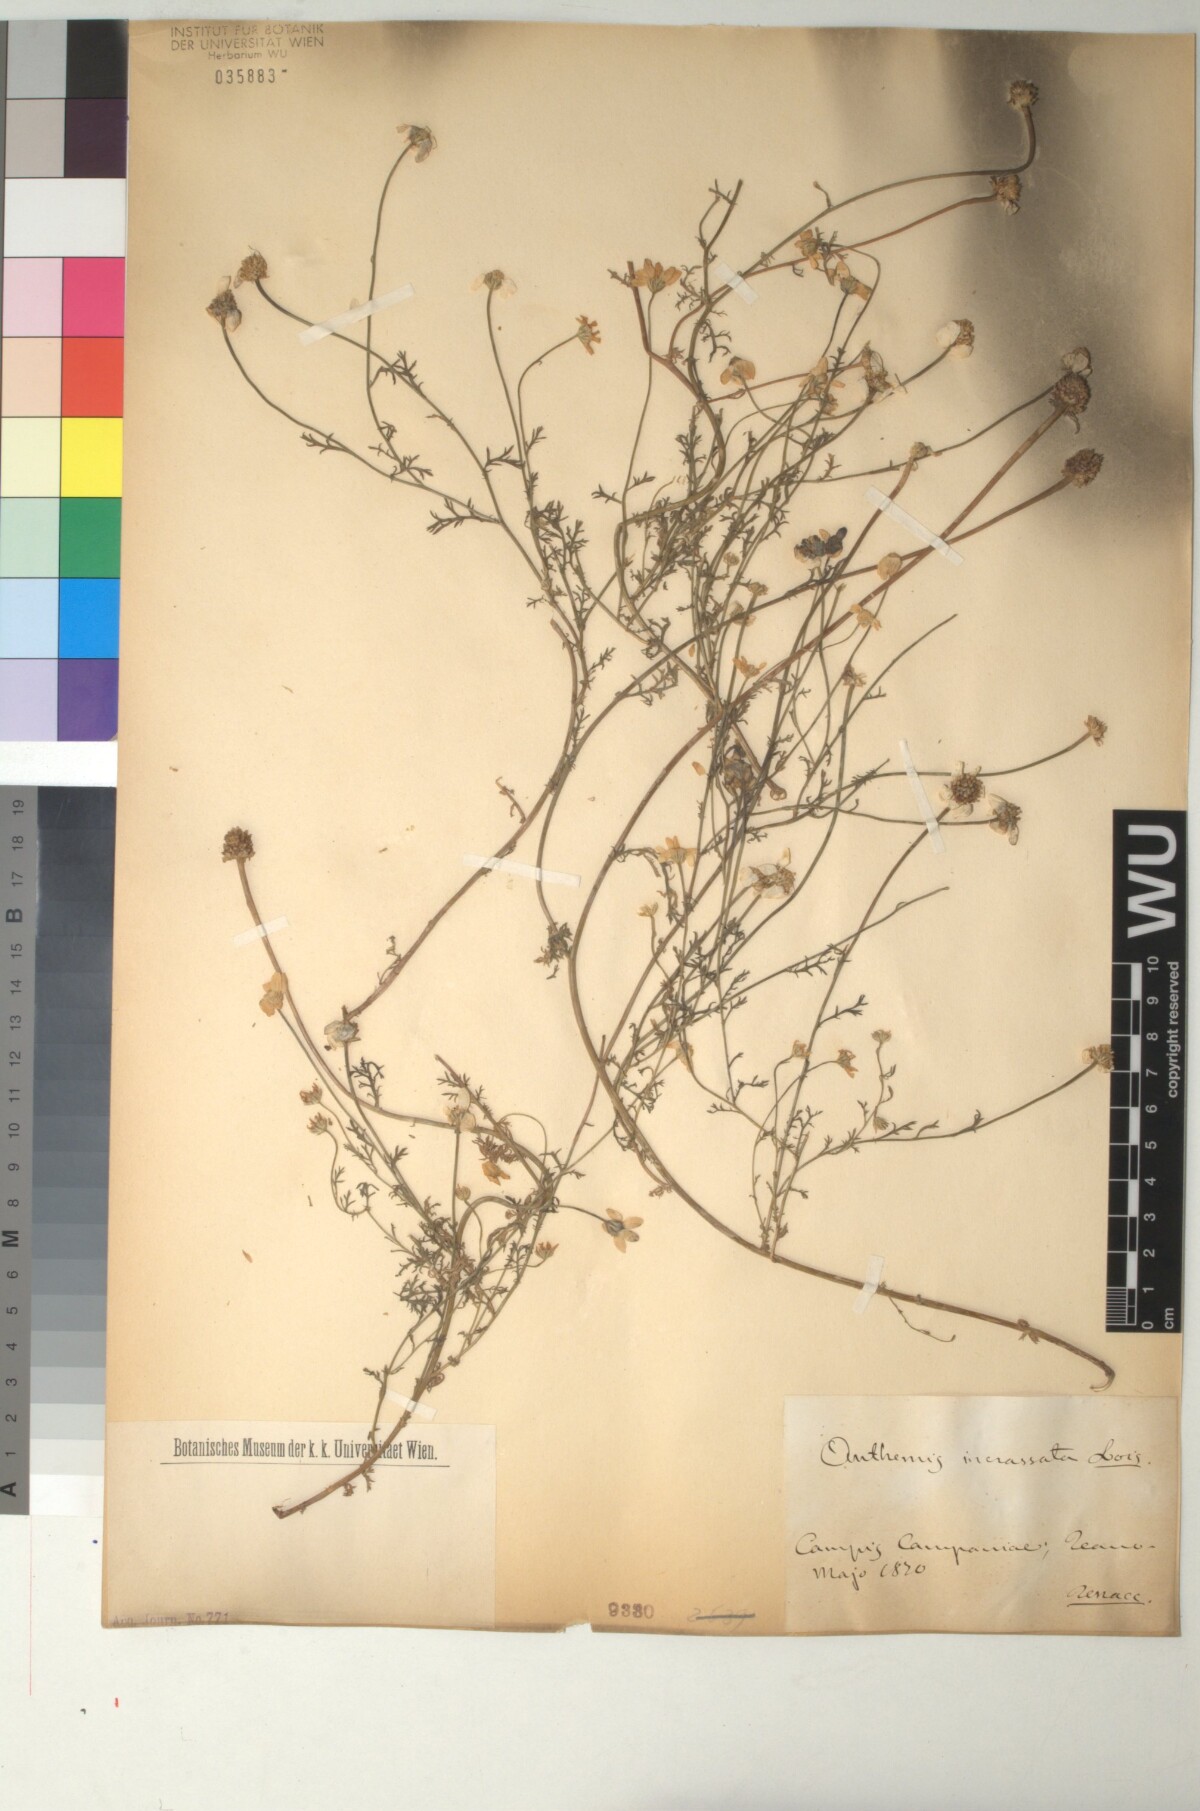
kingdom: Plantae
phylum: Tracheophyta
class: Magnoliopsida
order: Asterales
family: Asteraceae
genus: Anthemis
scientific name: Anthemis arvensis
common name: Corn chamomile
